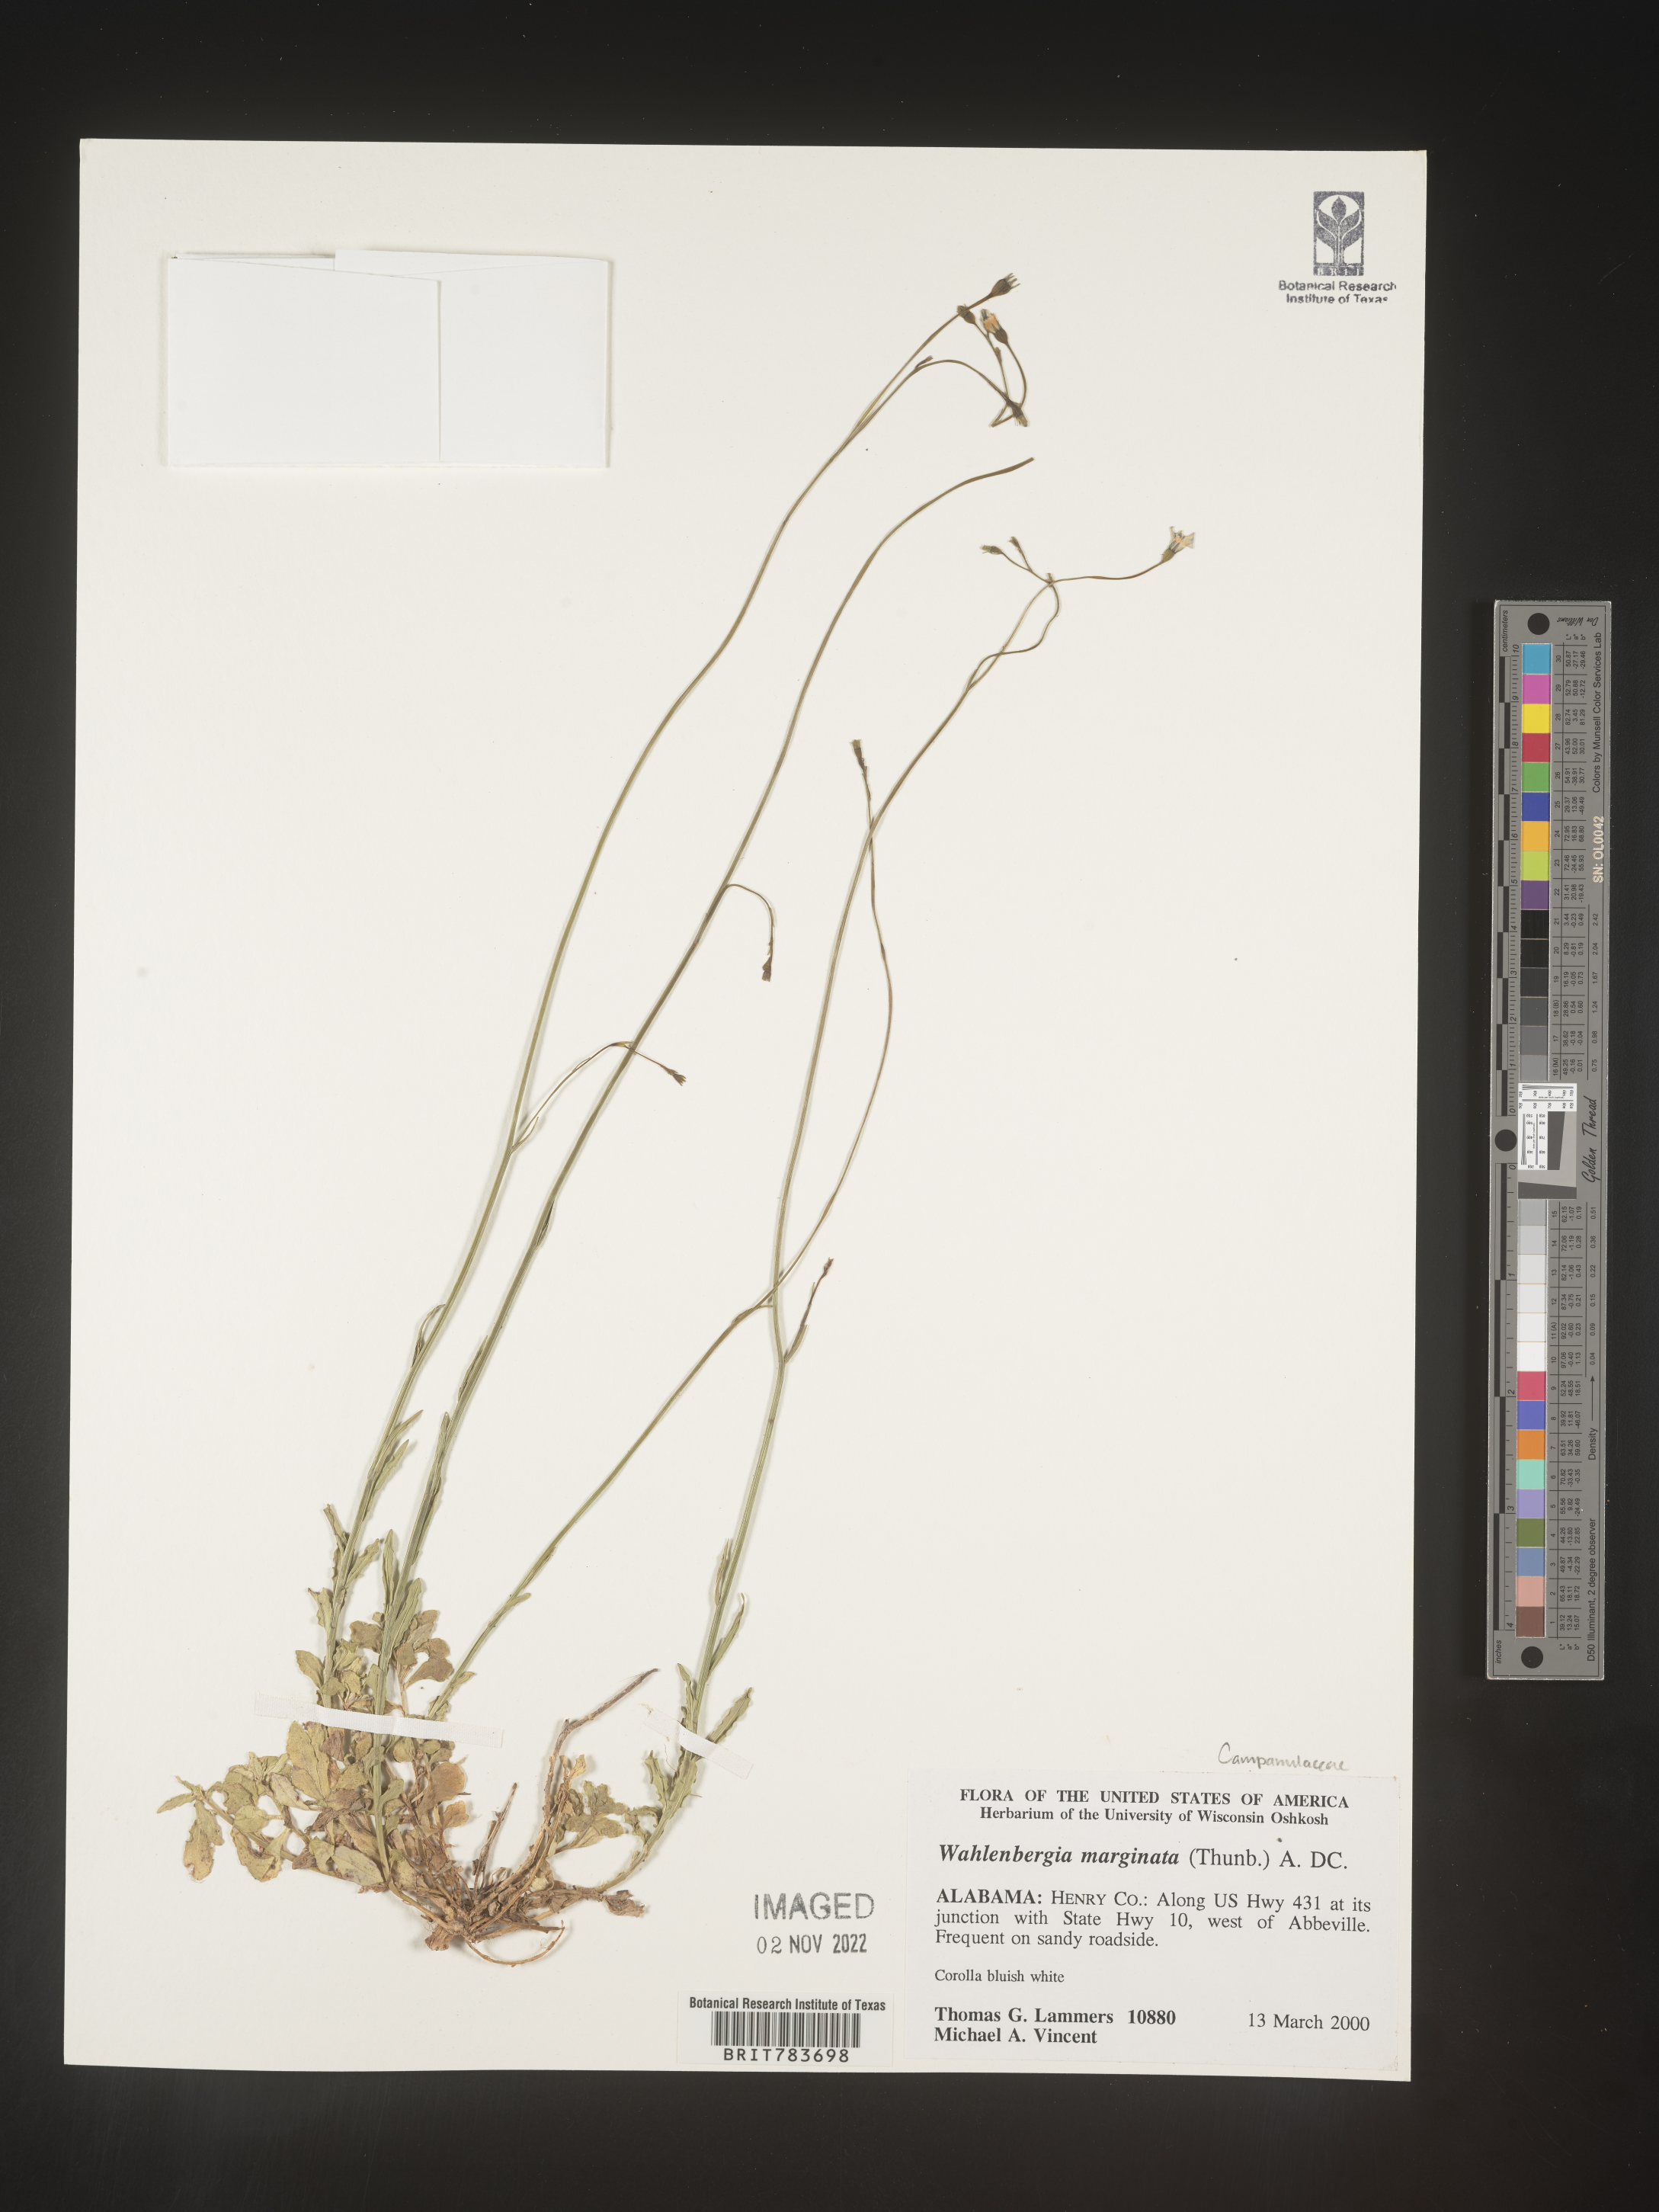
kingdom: Plantae
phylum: Tracheophyta
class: Magnoliopsida
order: Asterales
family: Campanulaceae
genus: Wahlenbergia
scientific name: Wahlenbergia marginata
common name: Southern rockbell
